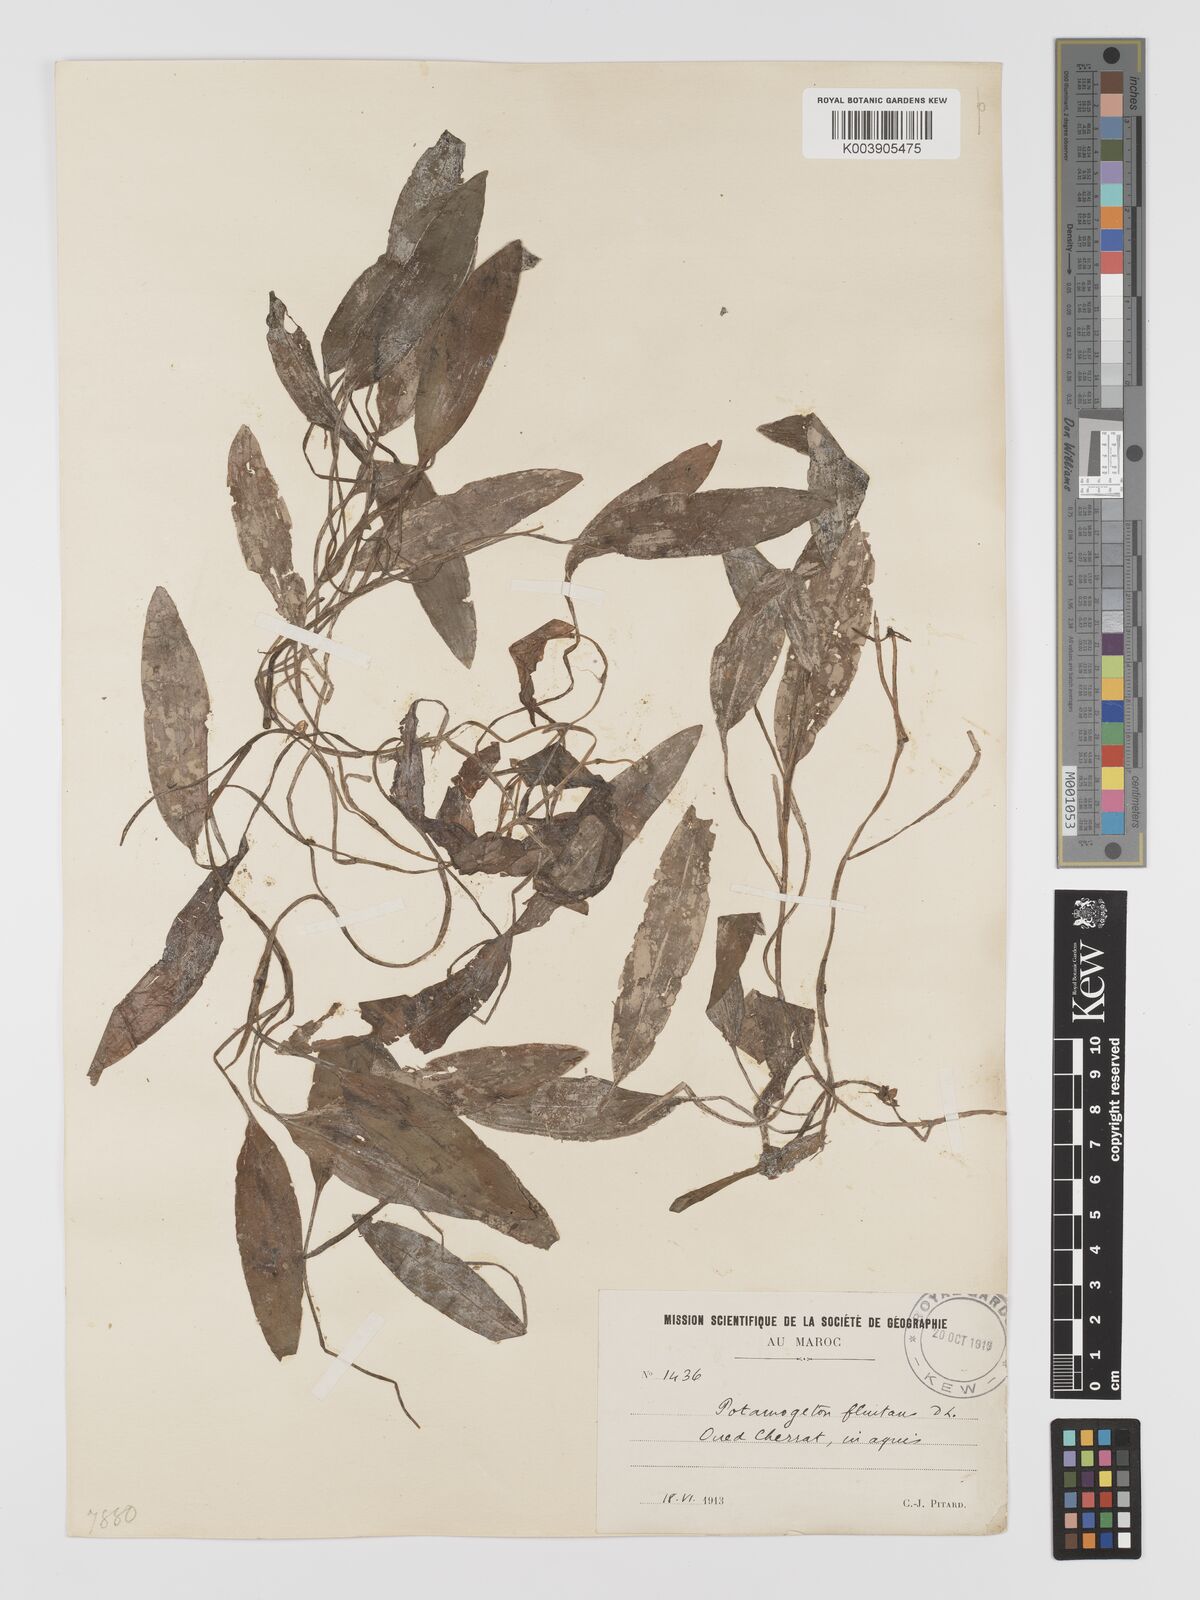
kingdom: Plantae
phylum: Tracheophyta
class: Liliopsida
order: Alismatales
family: Potamogetonaceae
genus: Potamogeton
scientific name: Potamogeton nodosus
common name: Loddon pondweed
